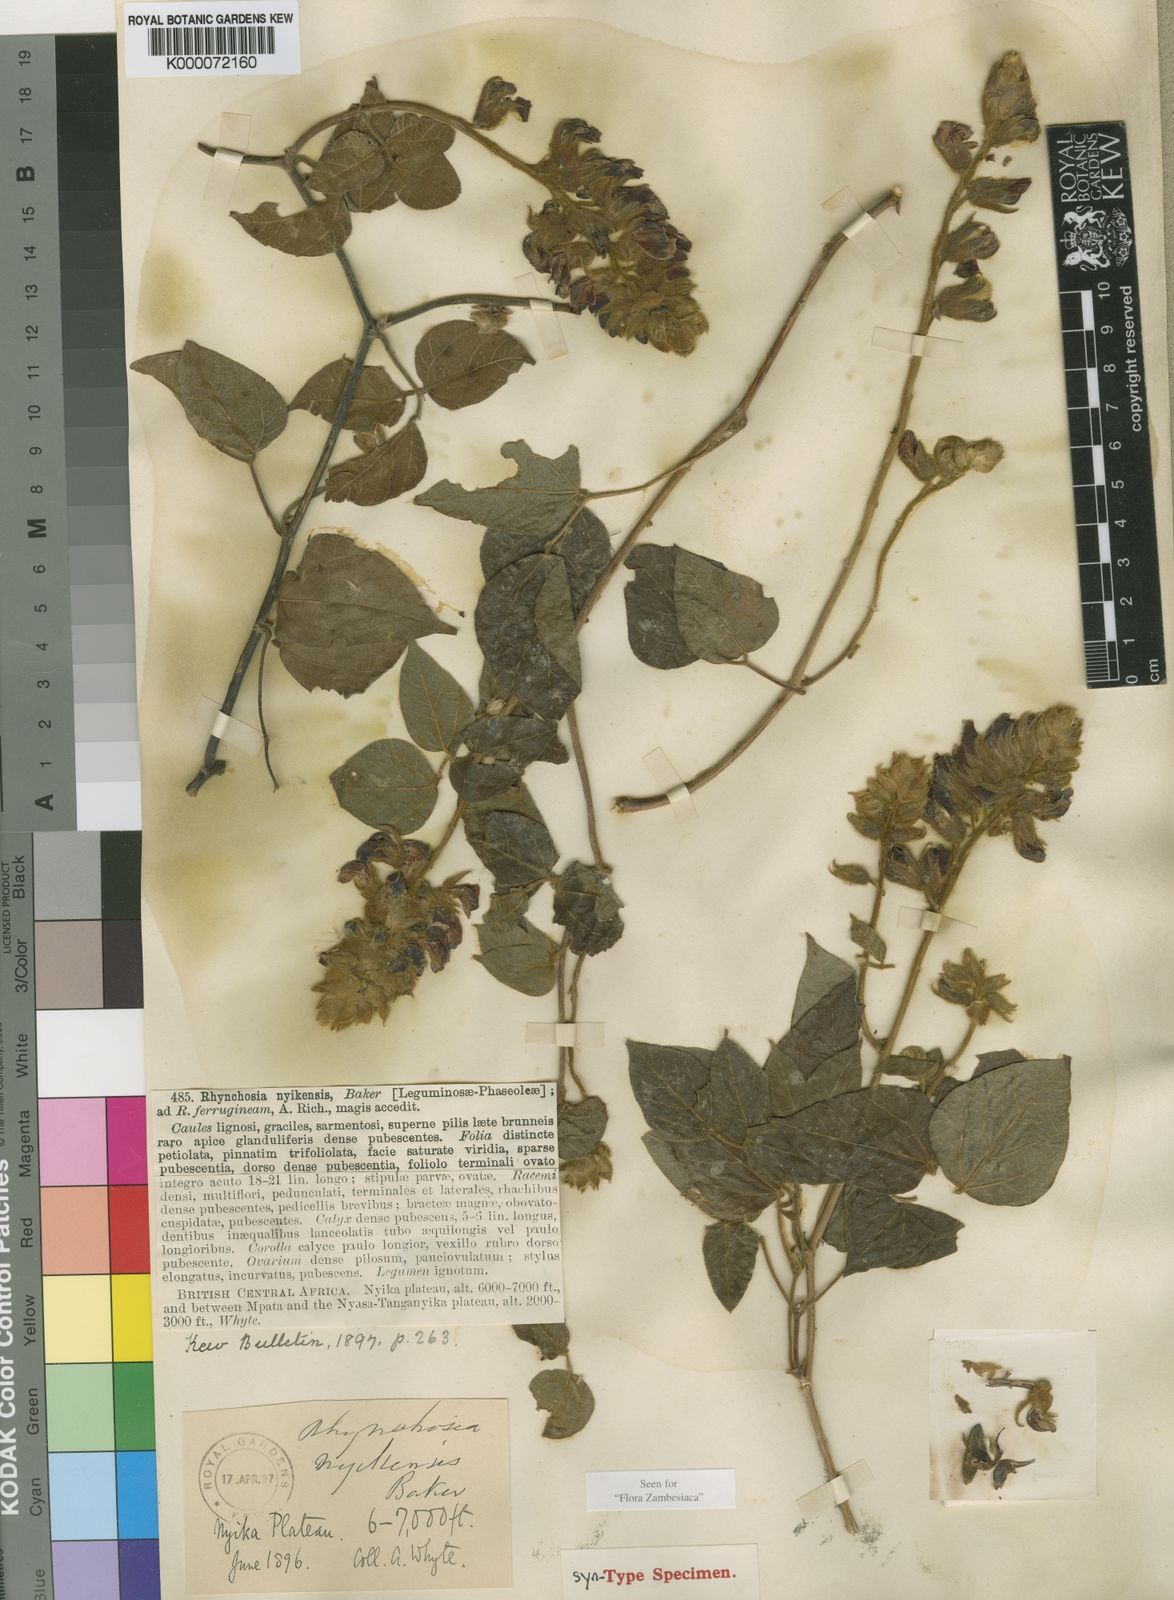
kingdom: Plantae
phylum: Tracheophyta
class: Magnoliopsida
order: Fabales
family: Fabaceae
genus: Rhynchosia
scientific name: Rhynchosia nyikensis
